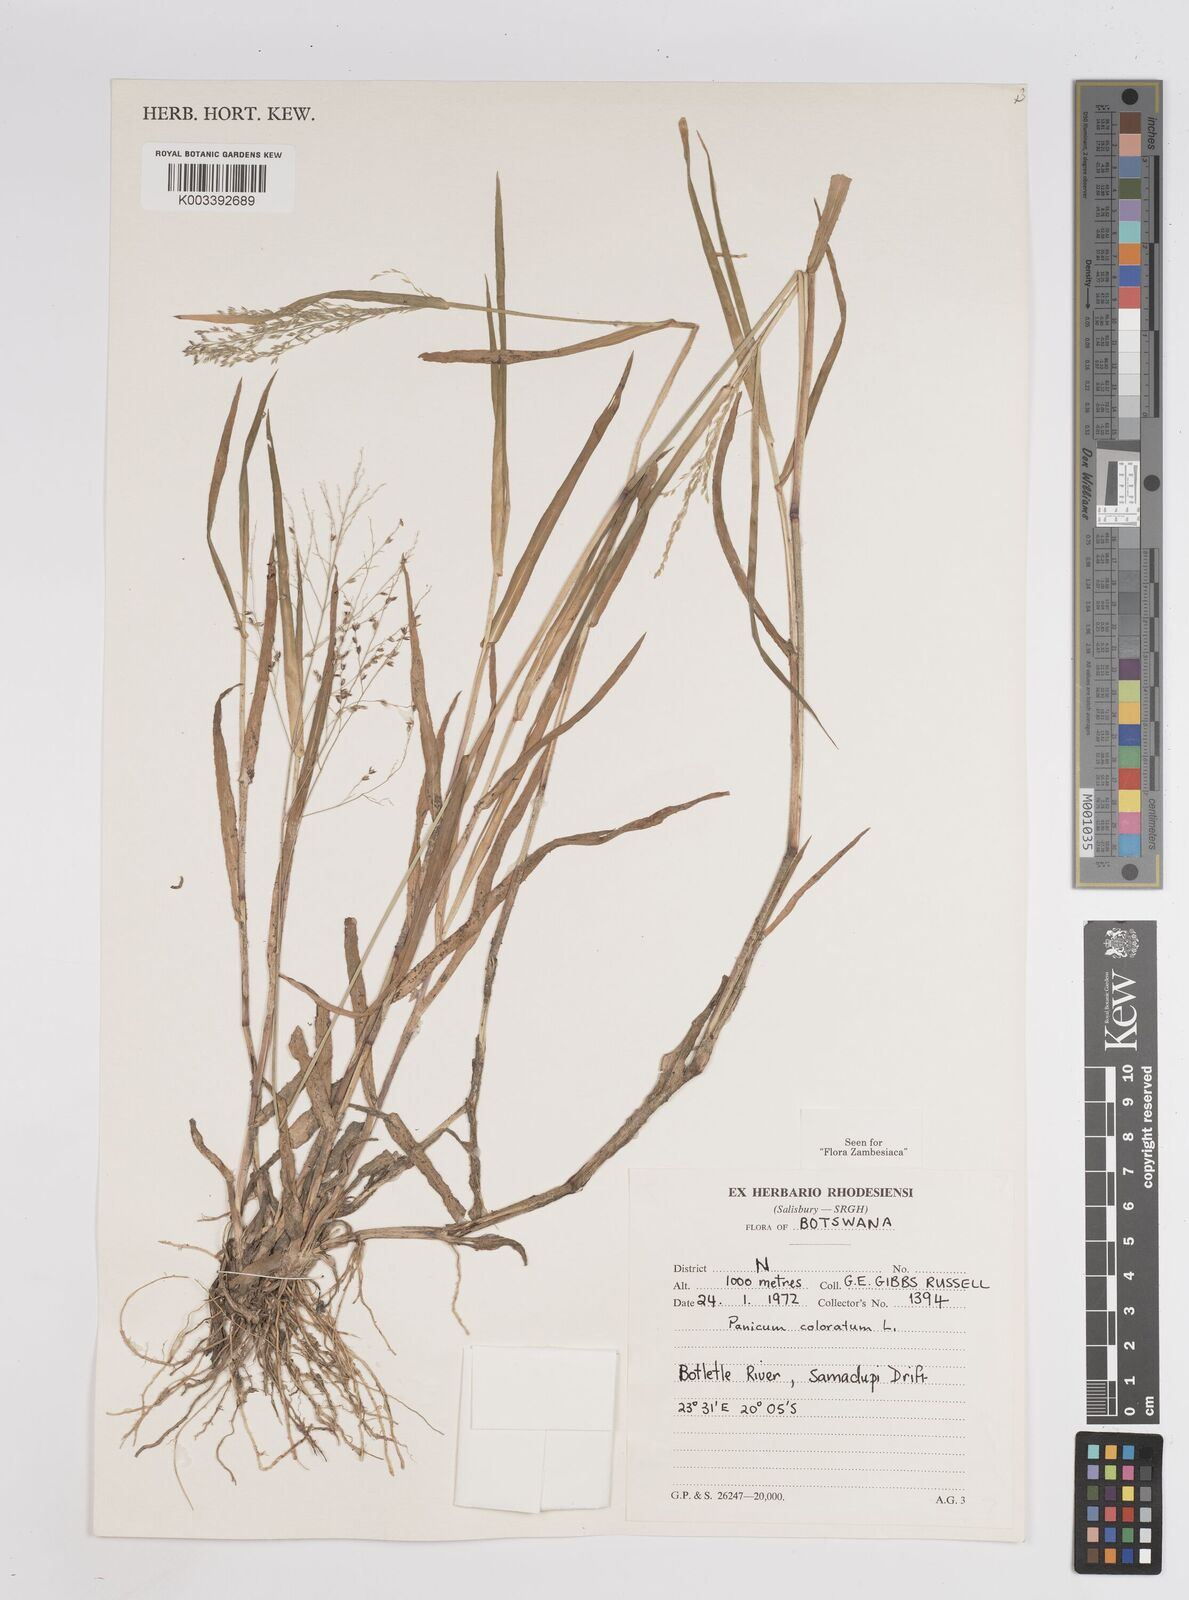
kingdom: Plantae
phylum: Tracheophyta
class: Liliopsida
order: Poales
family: Poaceae
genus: Panicum
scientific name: Panicum coloratum
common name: Kleingrass
